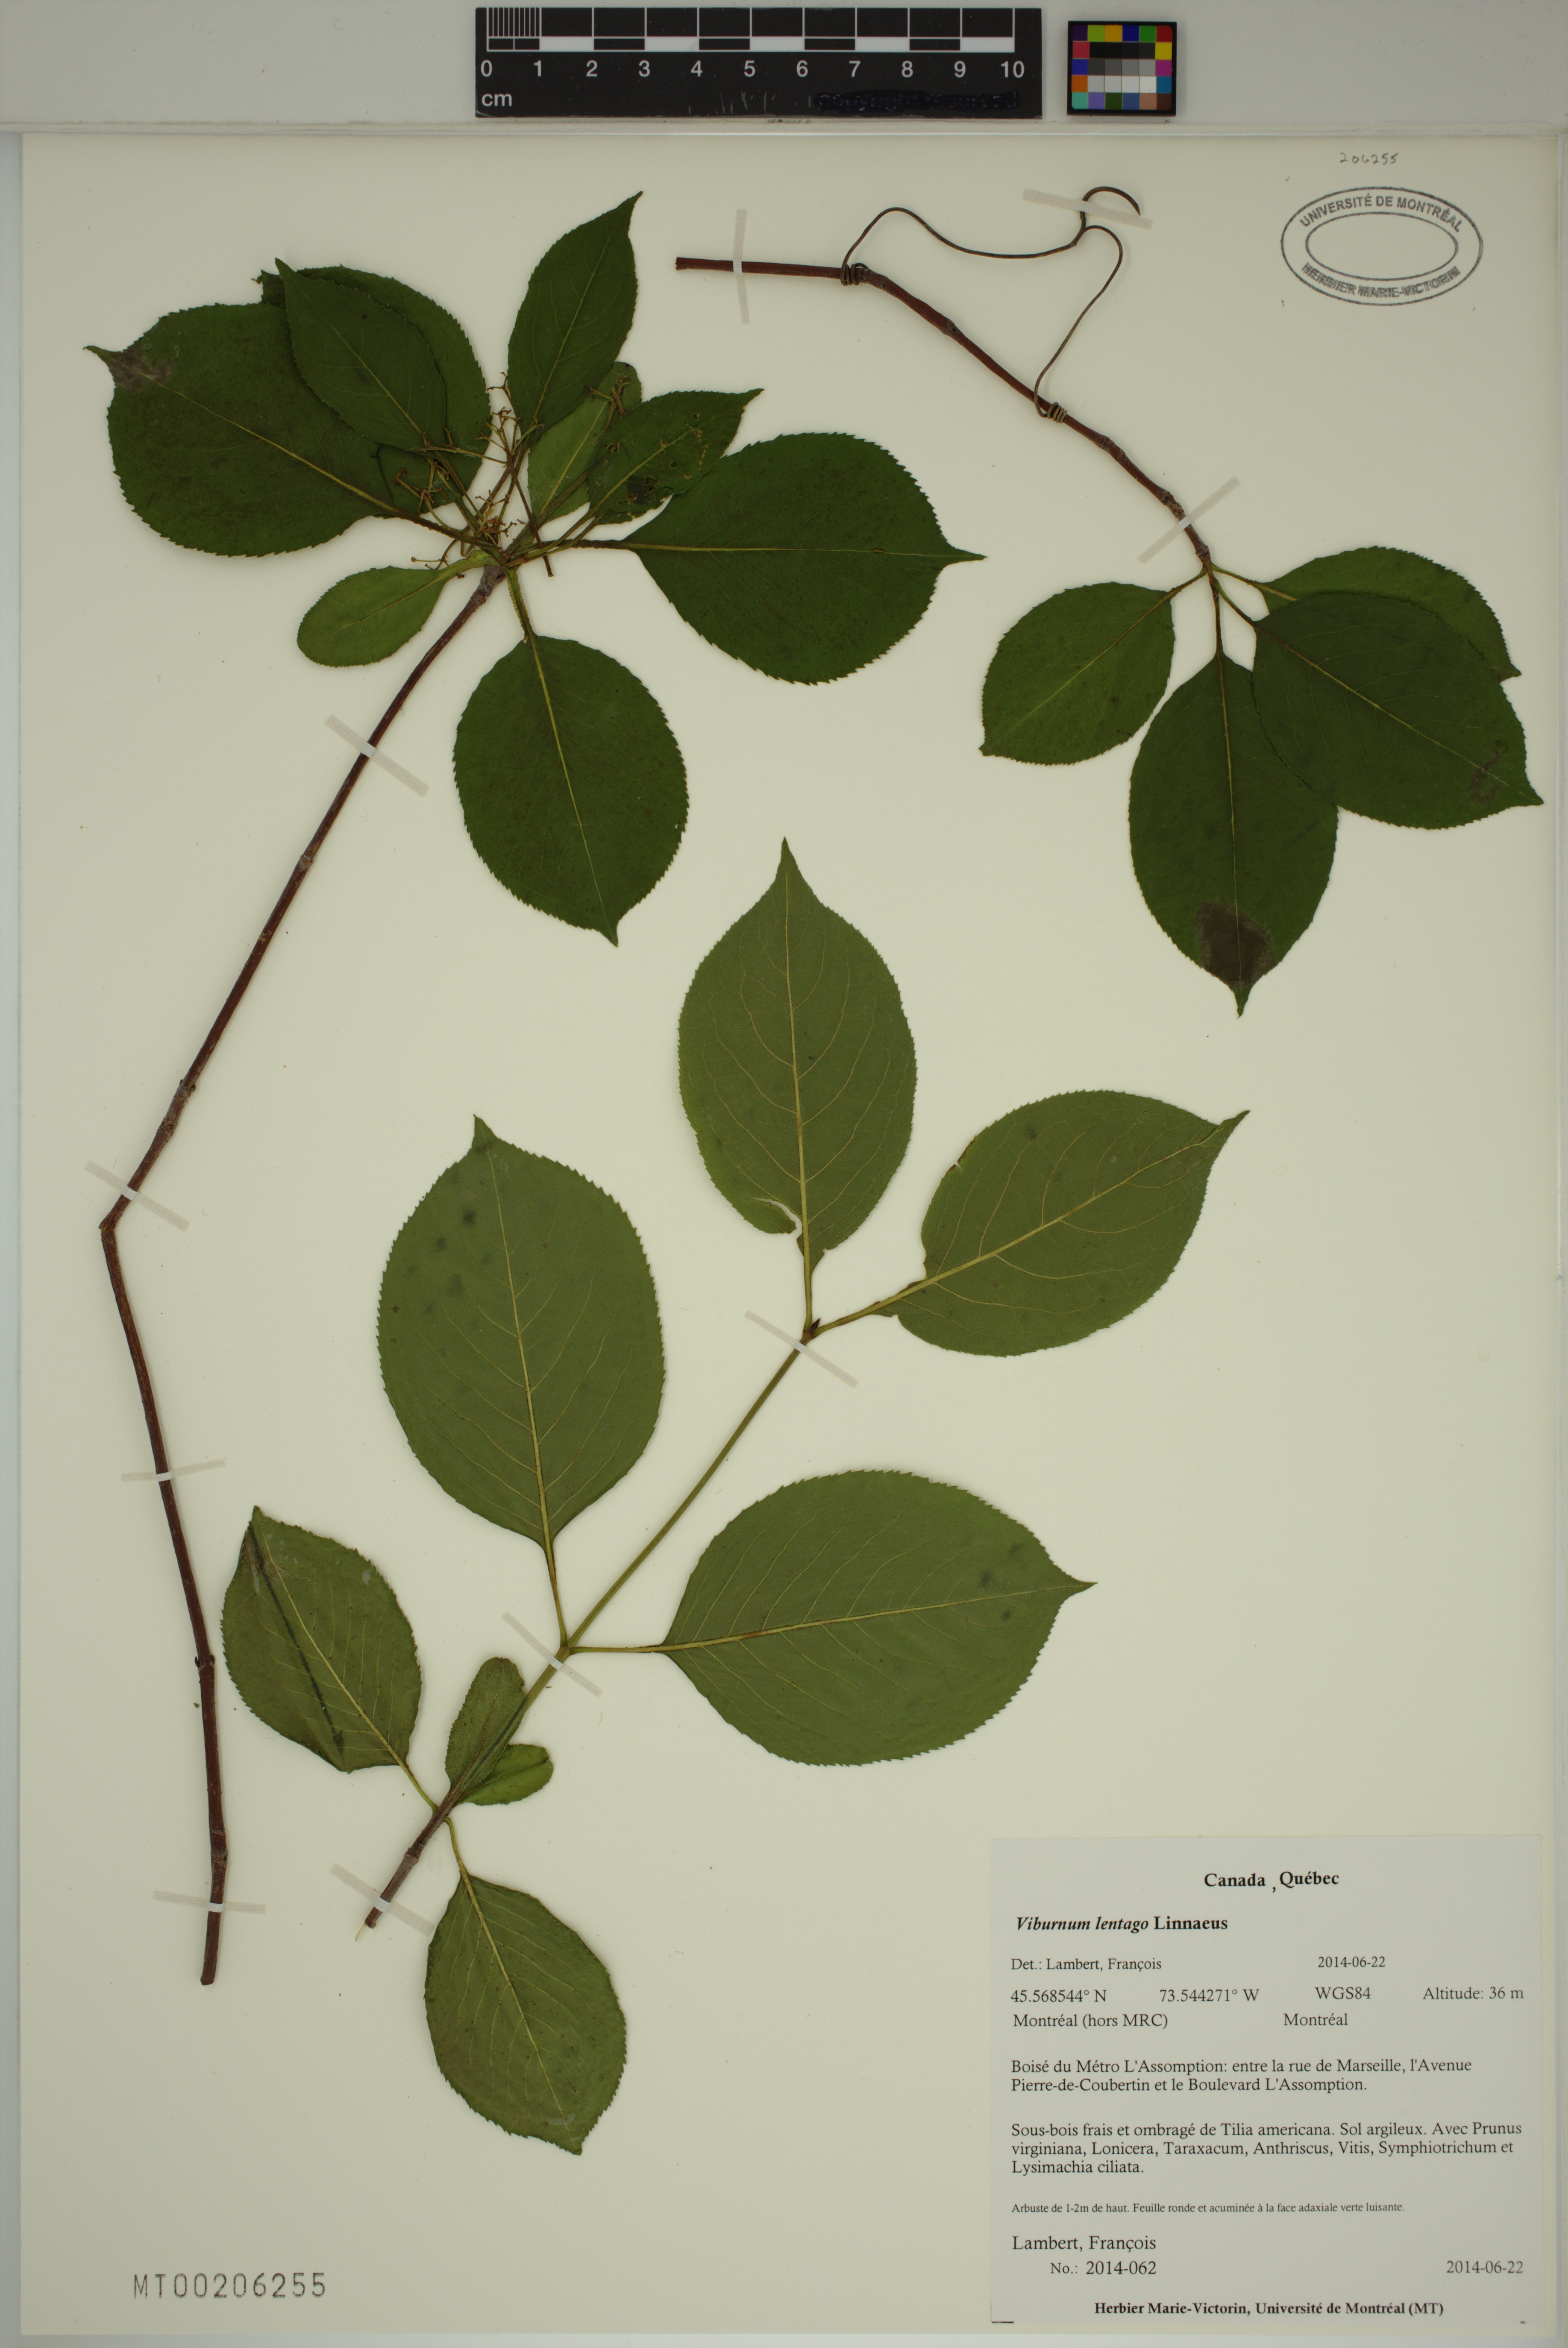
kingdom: Plantae
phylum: Tracheophyta
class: Magnoliopsida
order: Dipsacales
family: Viburnaceae
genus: Viburnum
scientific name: Viburnum lentago
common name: Black haw
